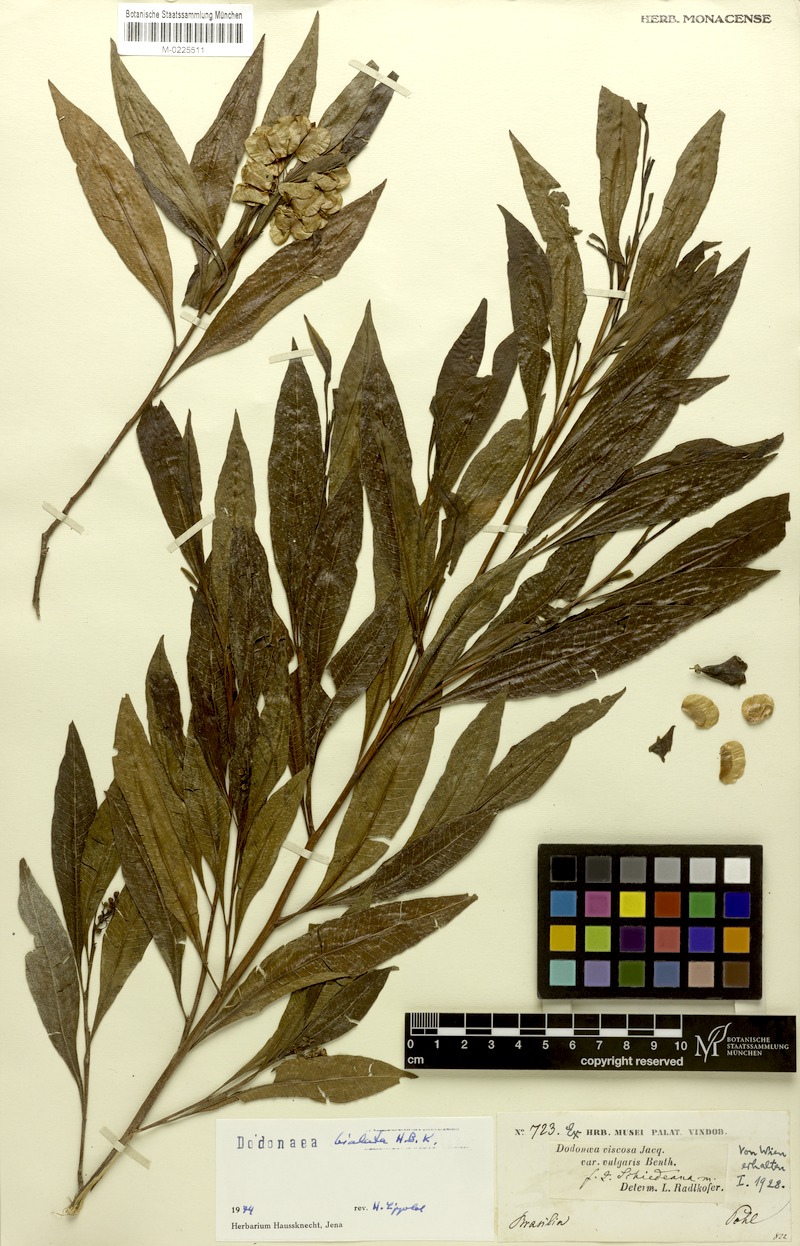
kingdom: Plantae
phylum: Tracheophyta
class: Magnoliopsida
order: Sapindales
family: Sapindaceae
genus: Dodonaea
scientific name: Dodonaea viscosa
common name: Hopbush
